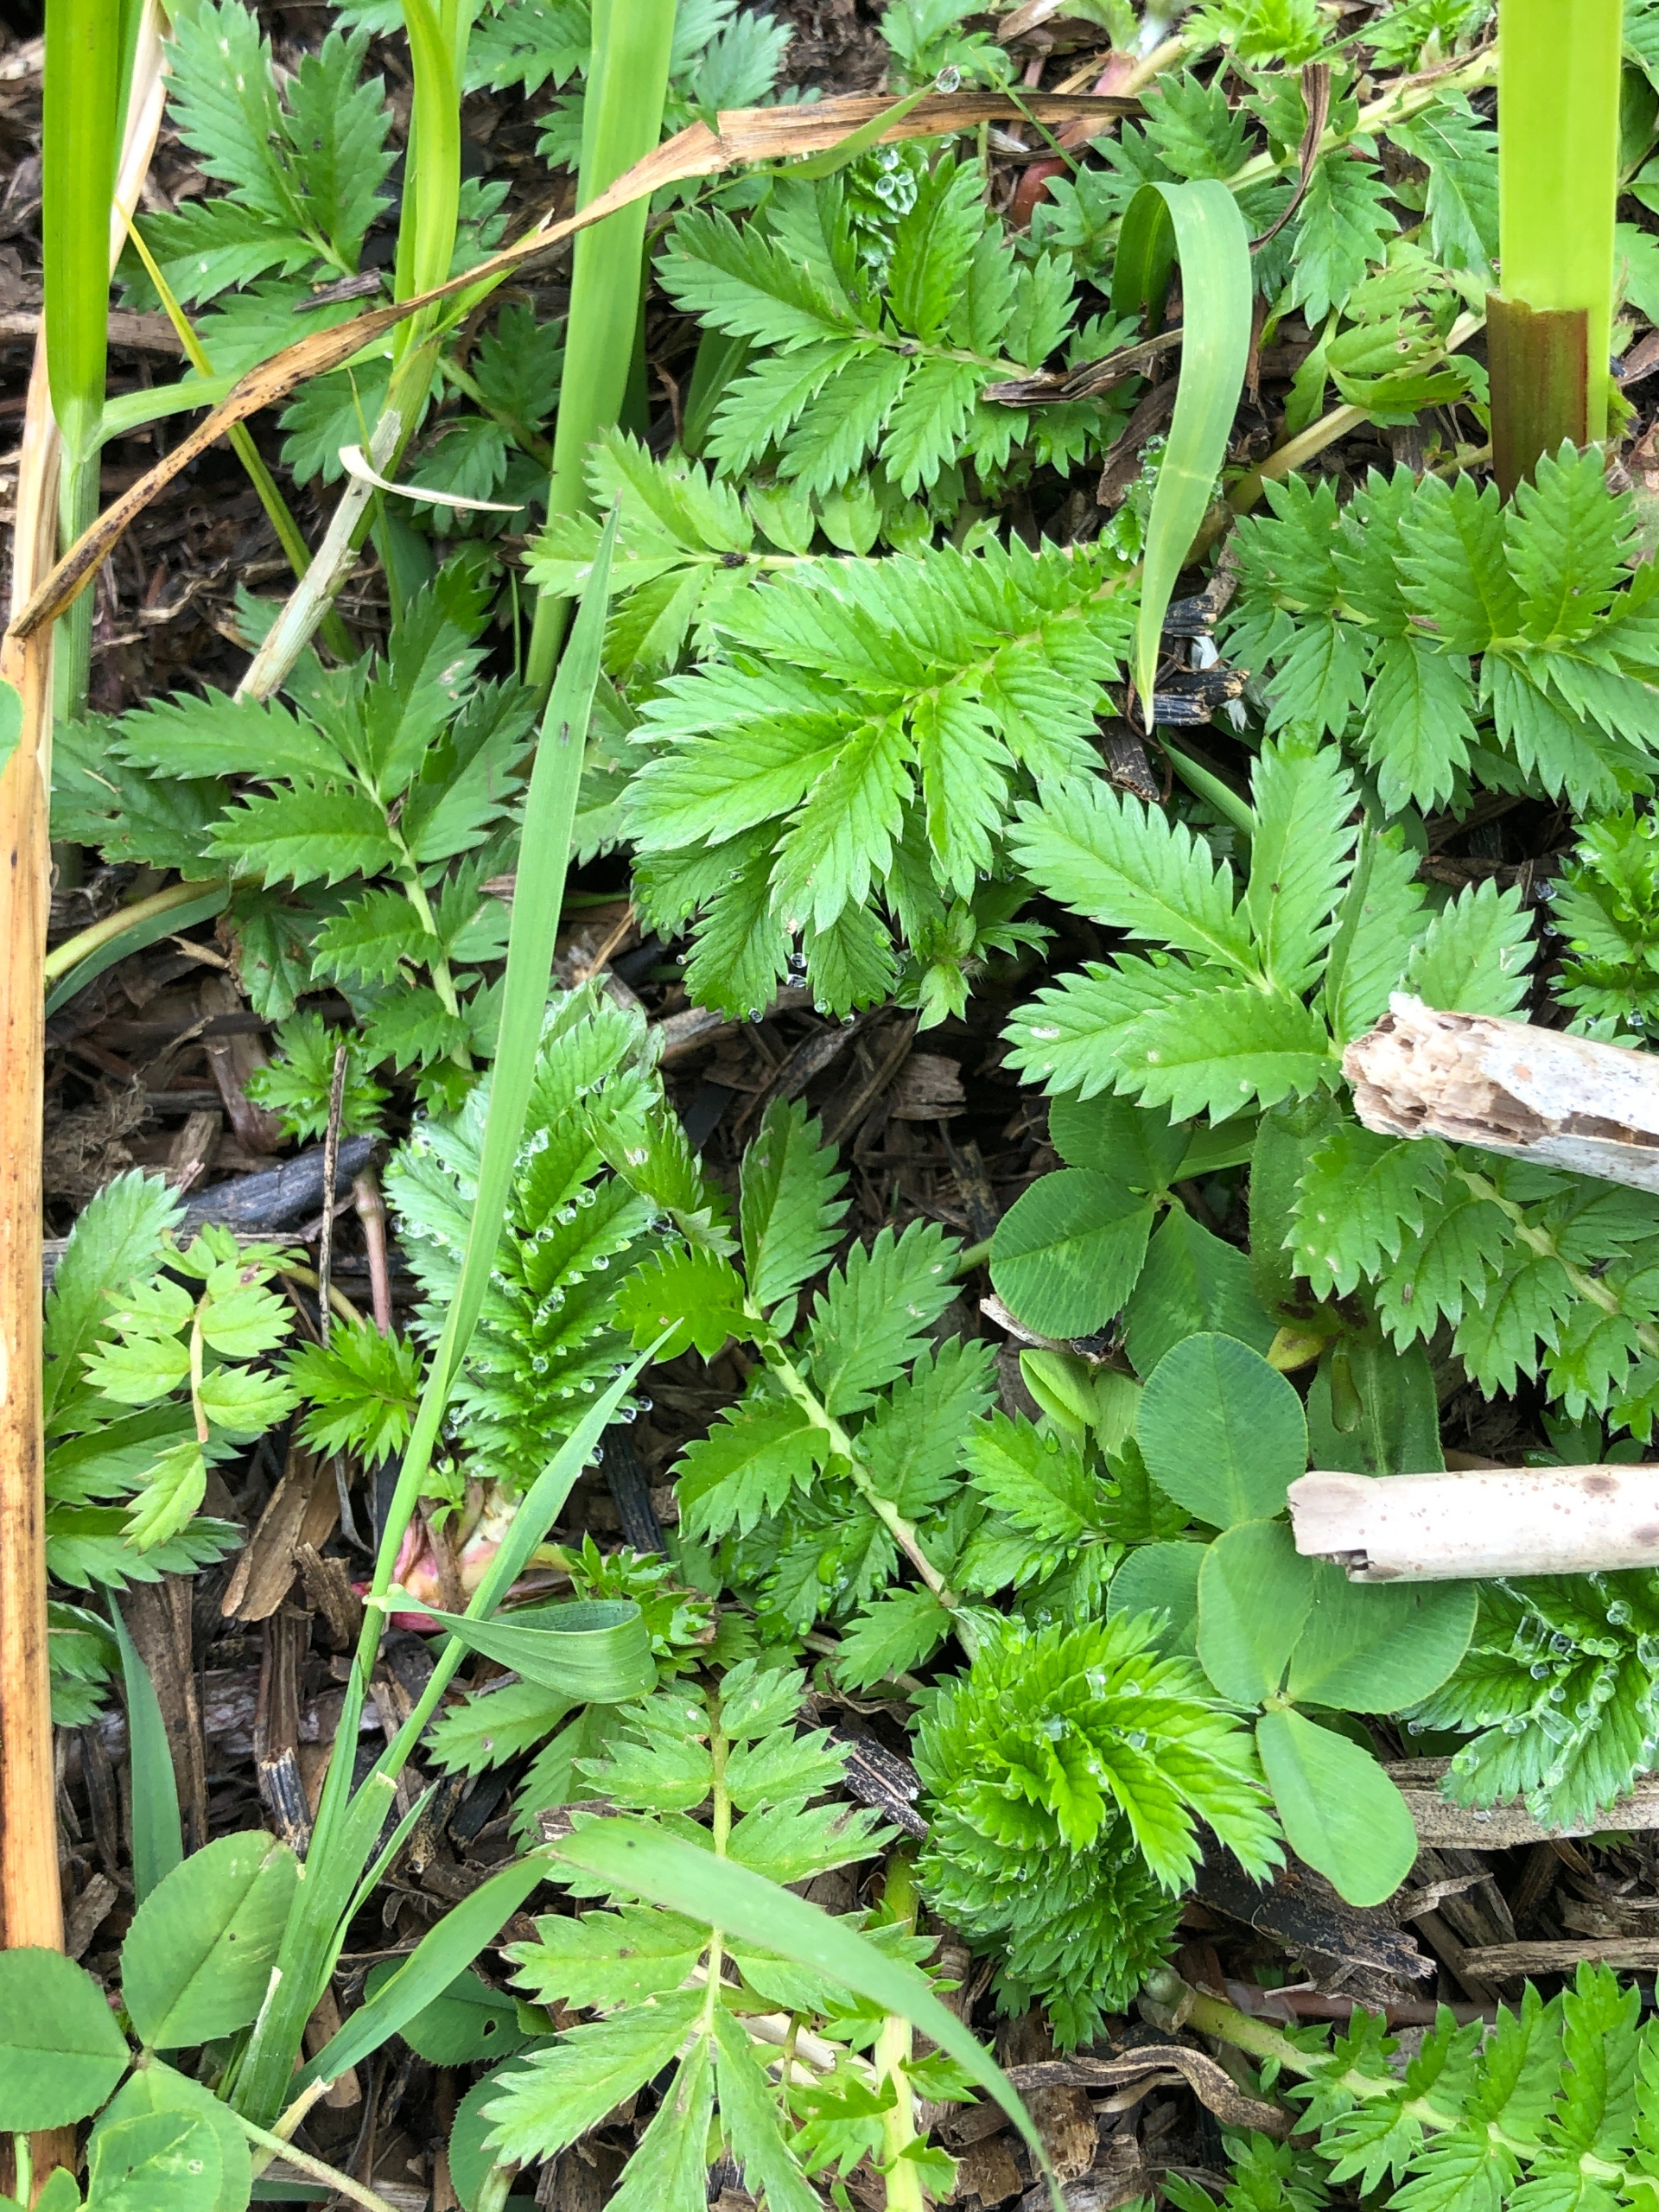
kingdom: Plantae
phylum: Tracheophyta
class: Magnoliopsida
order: Rosales
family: Rosaceae
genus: Argentina
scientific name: Argentina anserina
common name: Gåsepotentil
